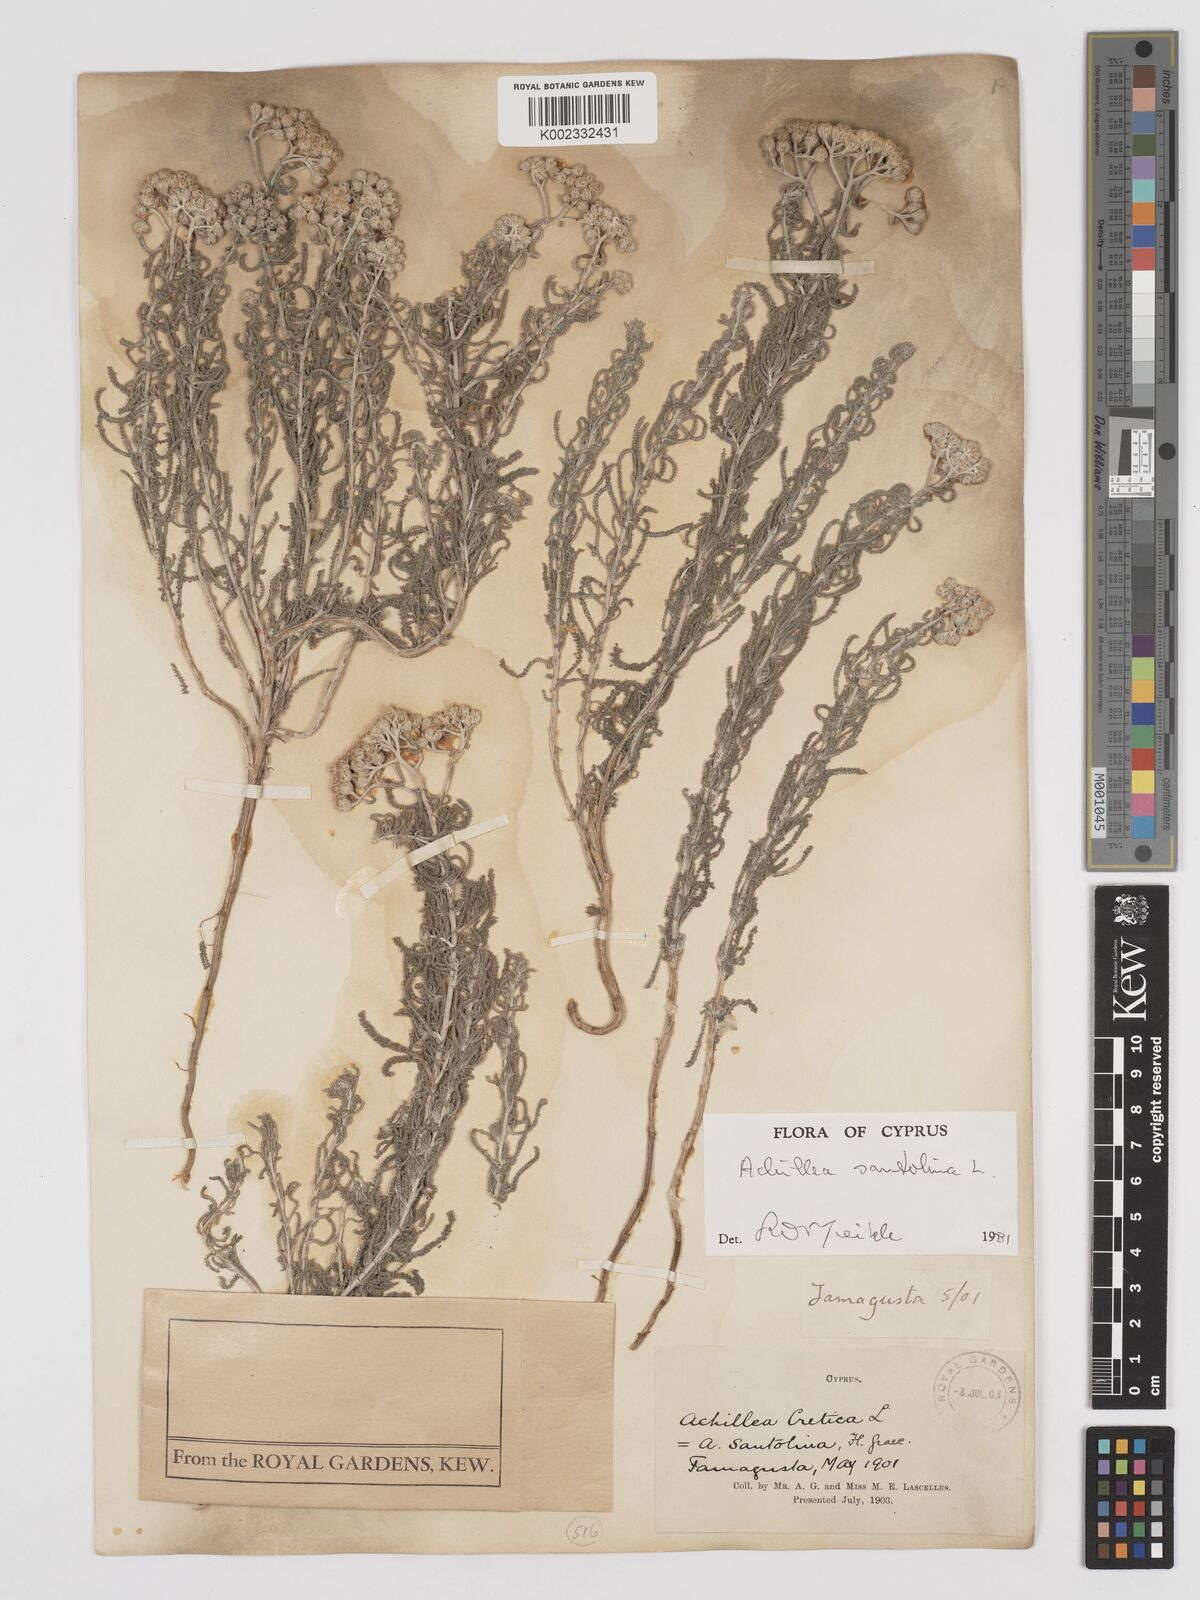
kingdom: Plantae
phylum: Tracheophyta
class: Magnoliopsida
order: Asterales
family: Asteraceae
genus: Achillea
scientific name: Achillea tenuifolia
